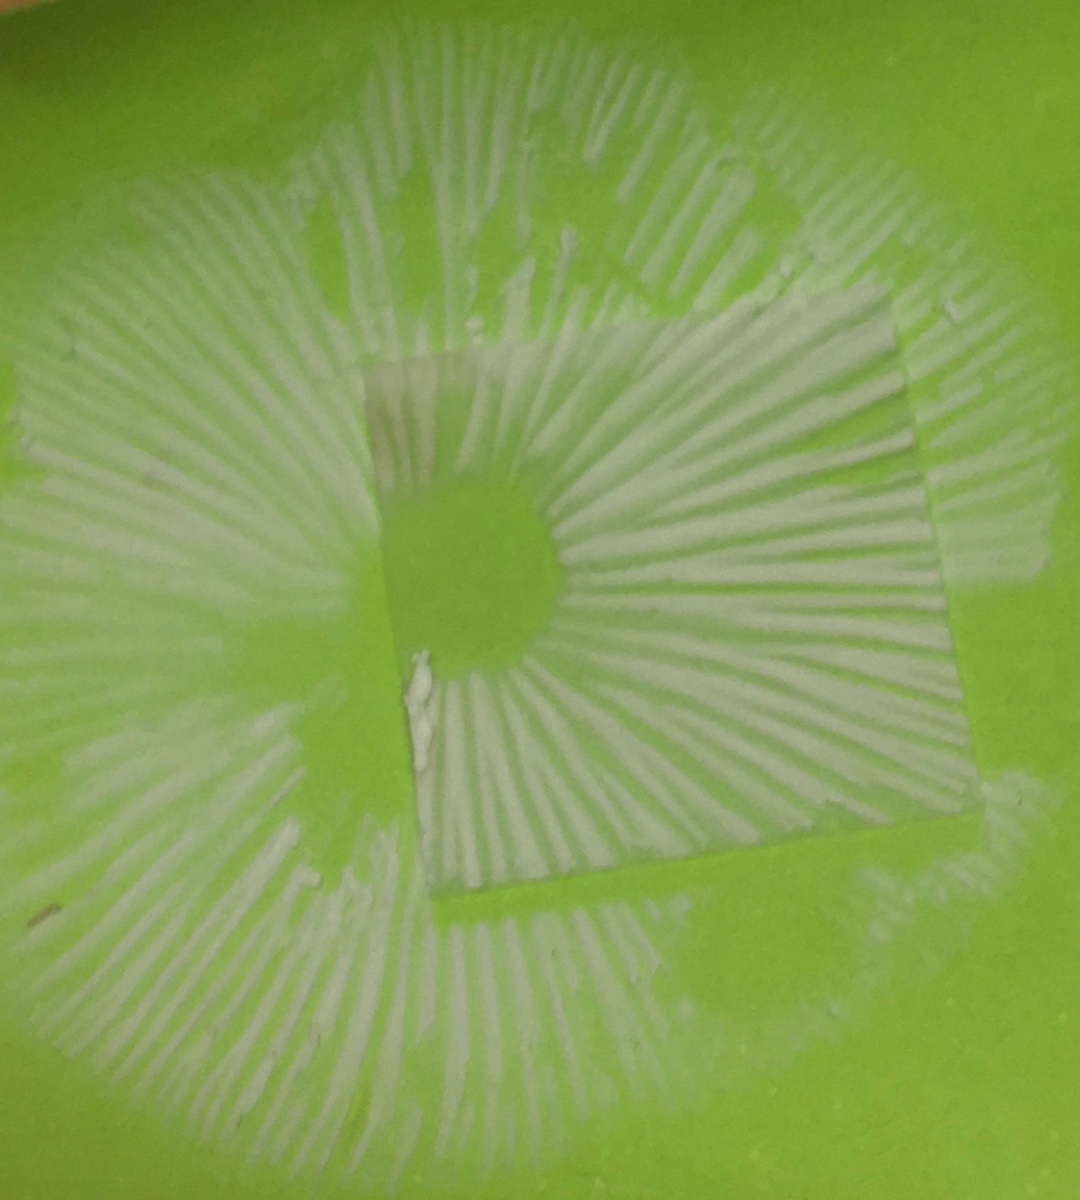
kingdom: Fungi
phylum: Basidiomycota
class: Agaricomycetes
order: Agaricales
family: Physalacriaceae
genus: Hymenopellis
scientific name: Hymenopellis radicata
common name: almindelig pælerodshat
